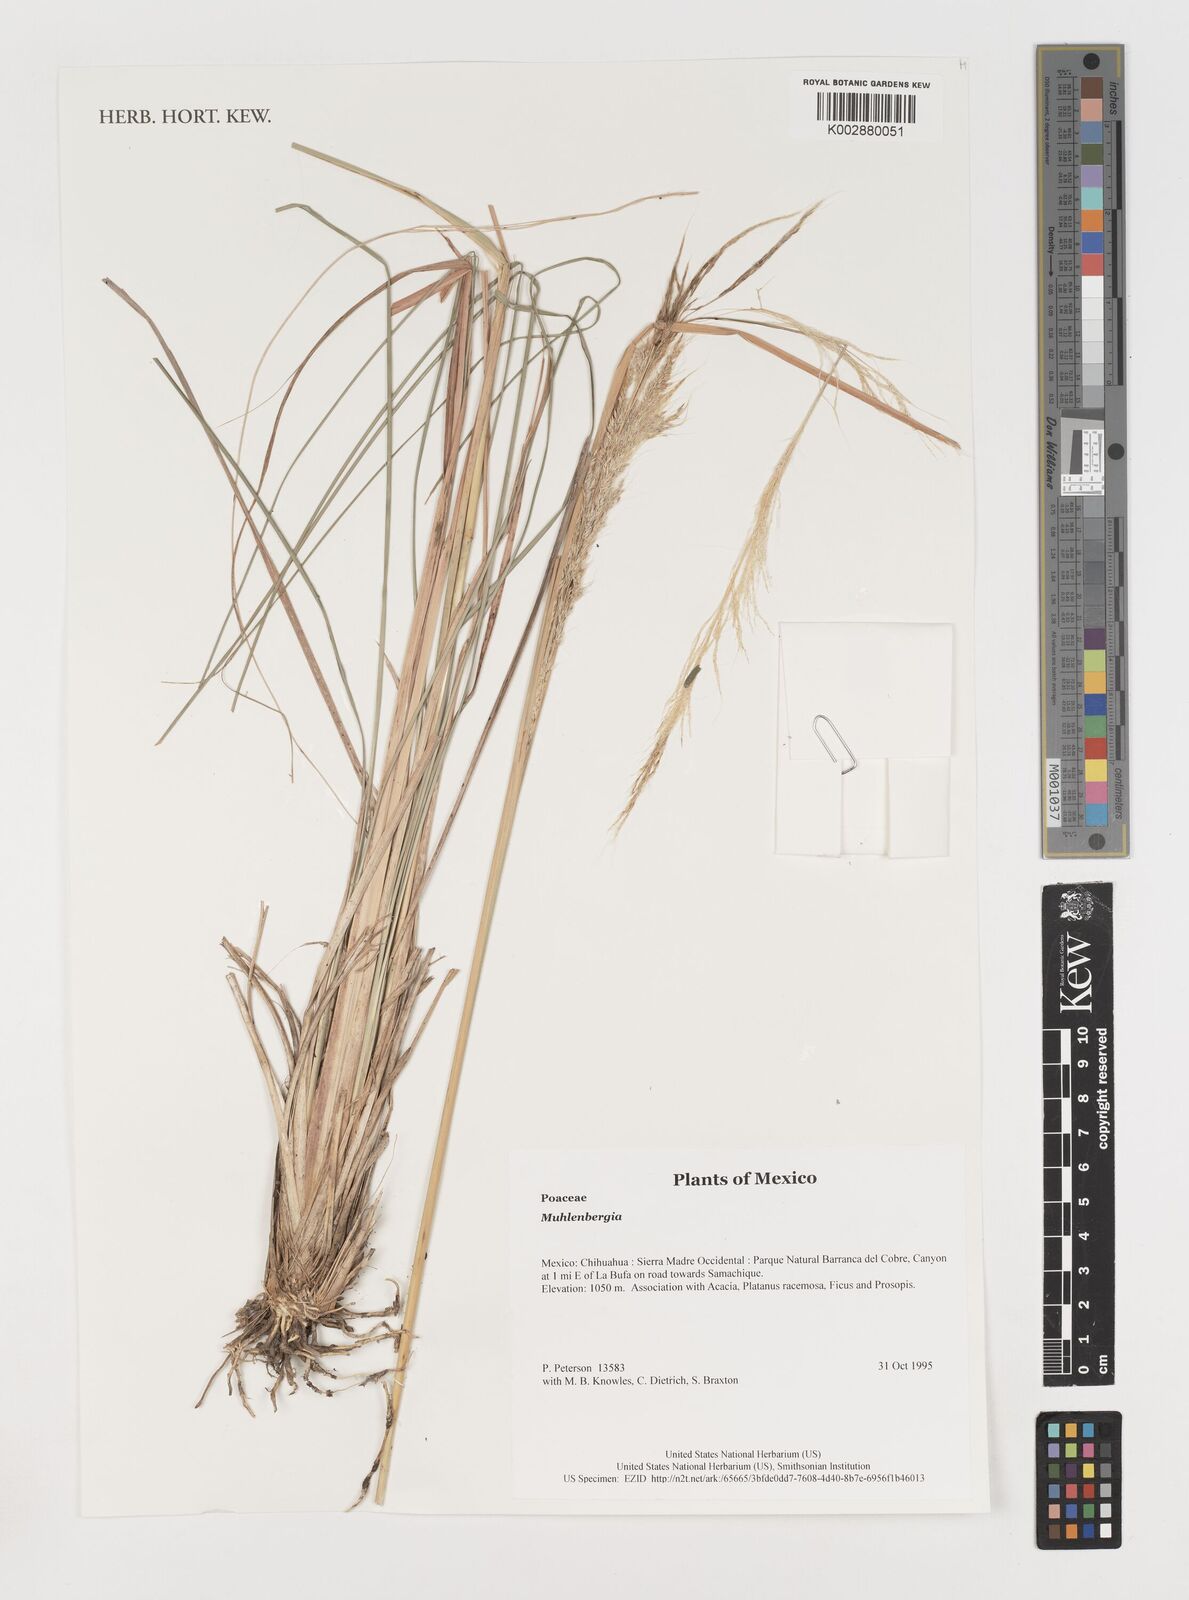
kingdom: Plantae
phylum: Tracheophyta
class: Liliopsida
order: Poales
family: Poaceae
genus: Muhlenbergia
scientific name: Muhlenbergia
